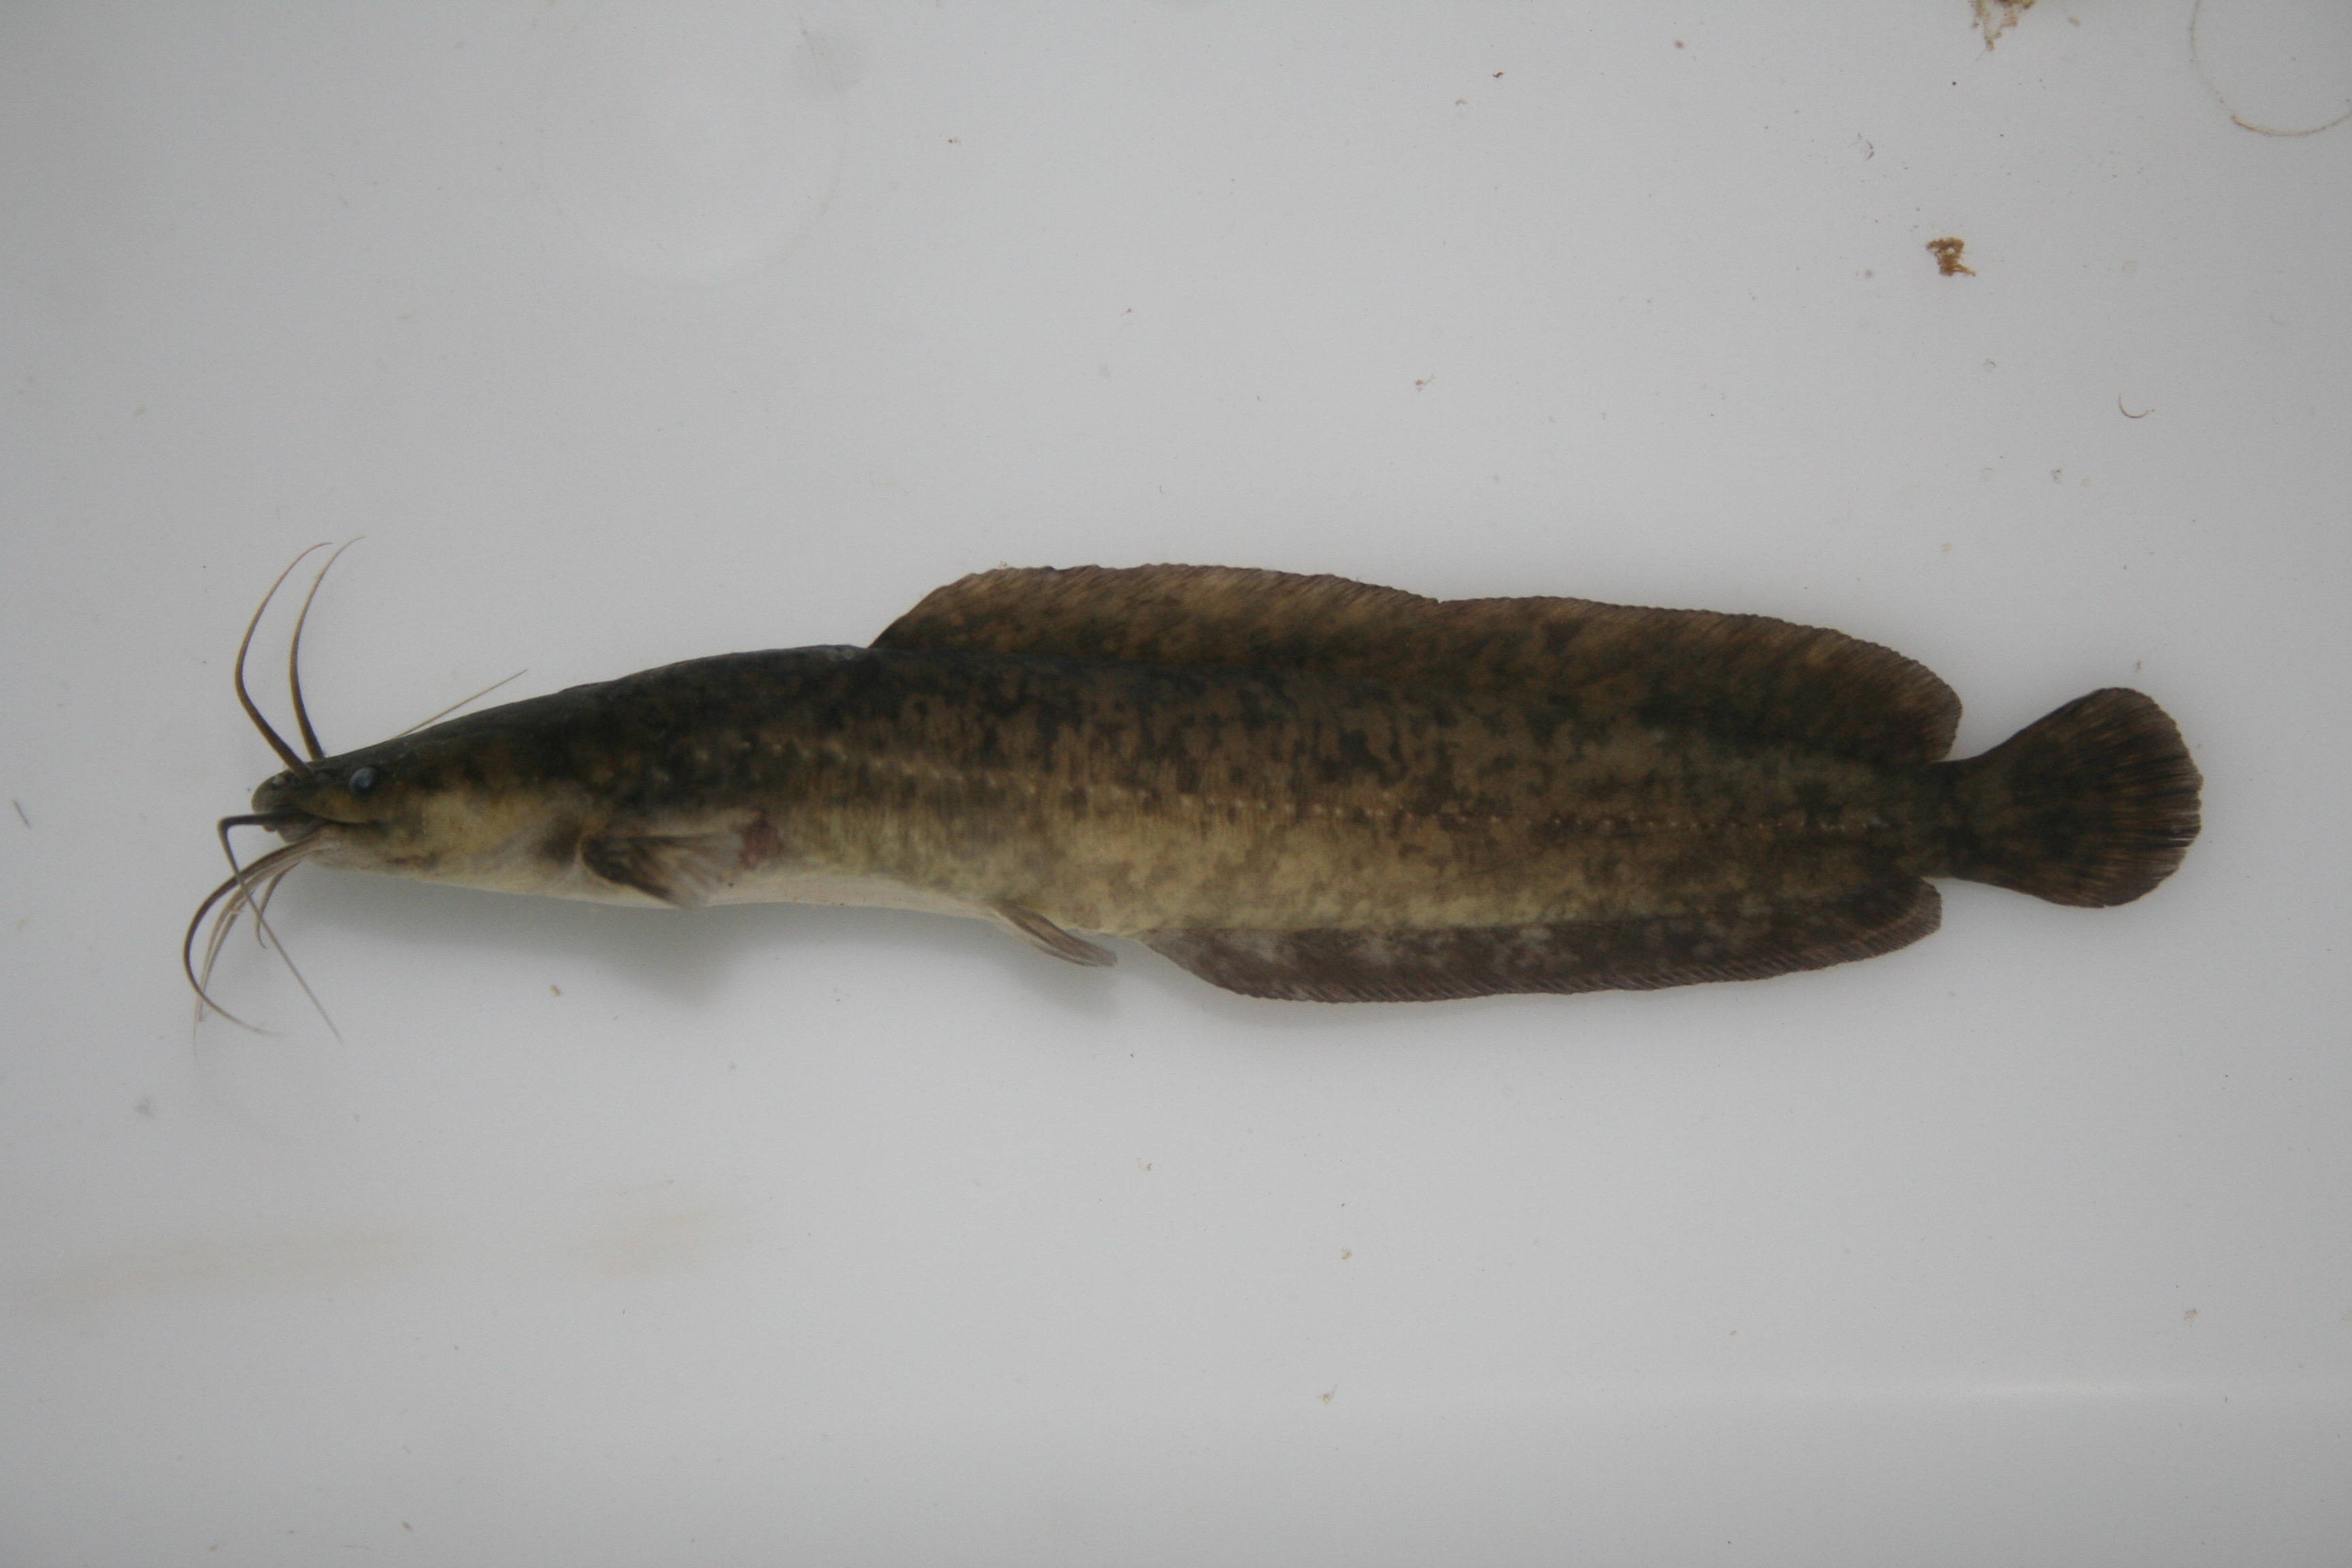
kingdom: Animalia
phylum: Chordata
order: Siluriformes
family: Clariidae
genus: Clarias
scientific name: Clarias
